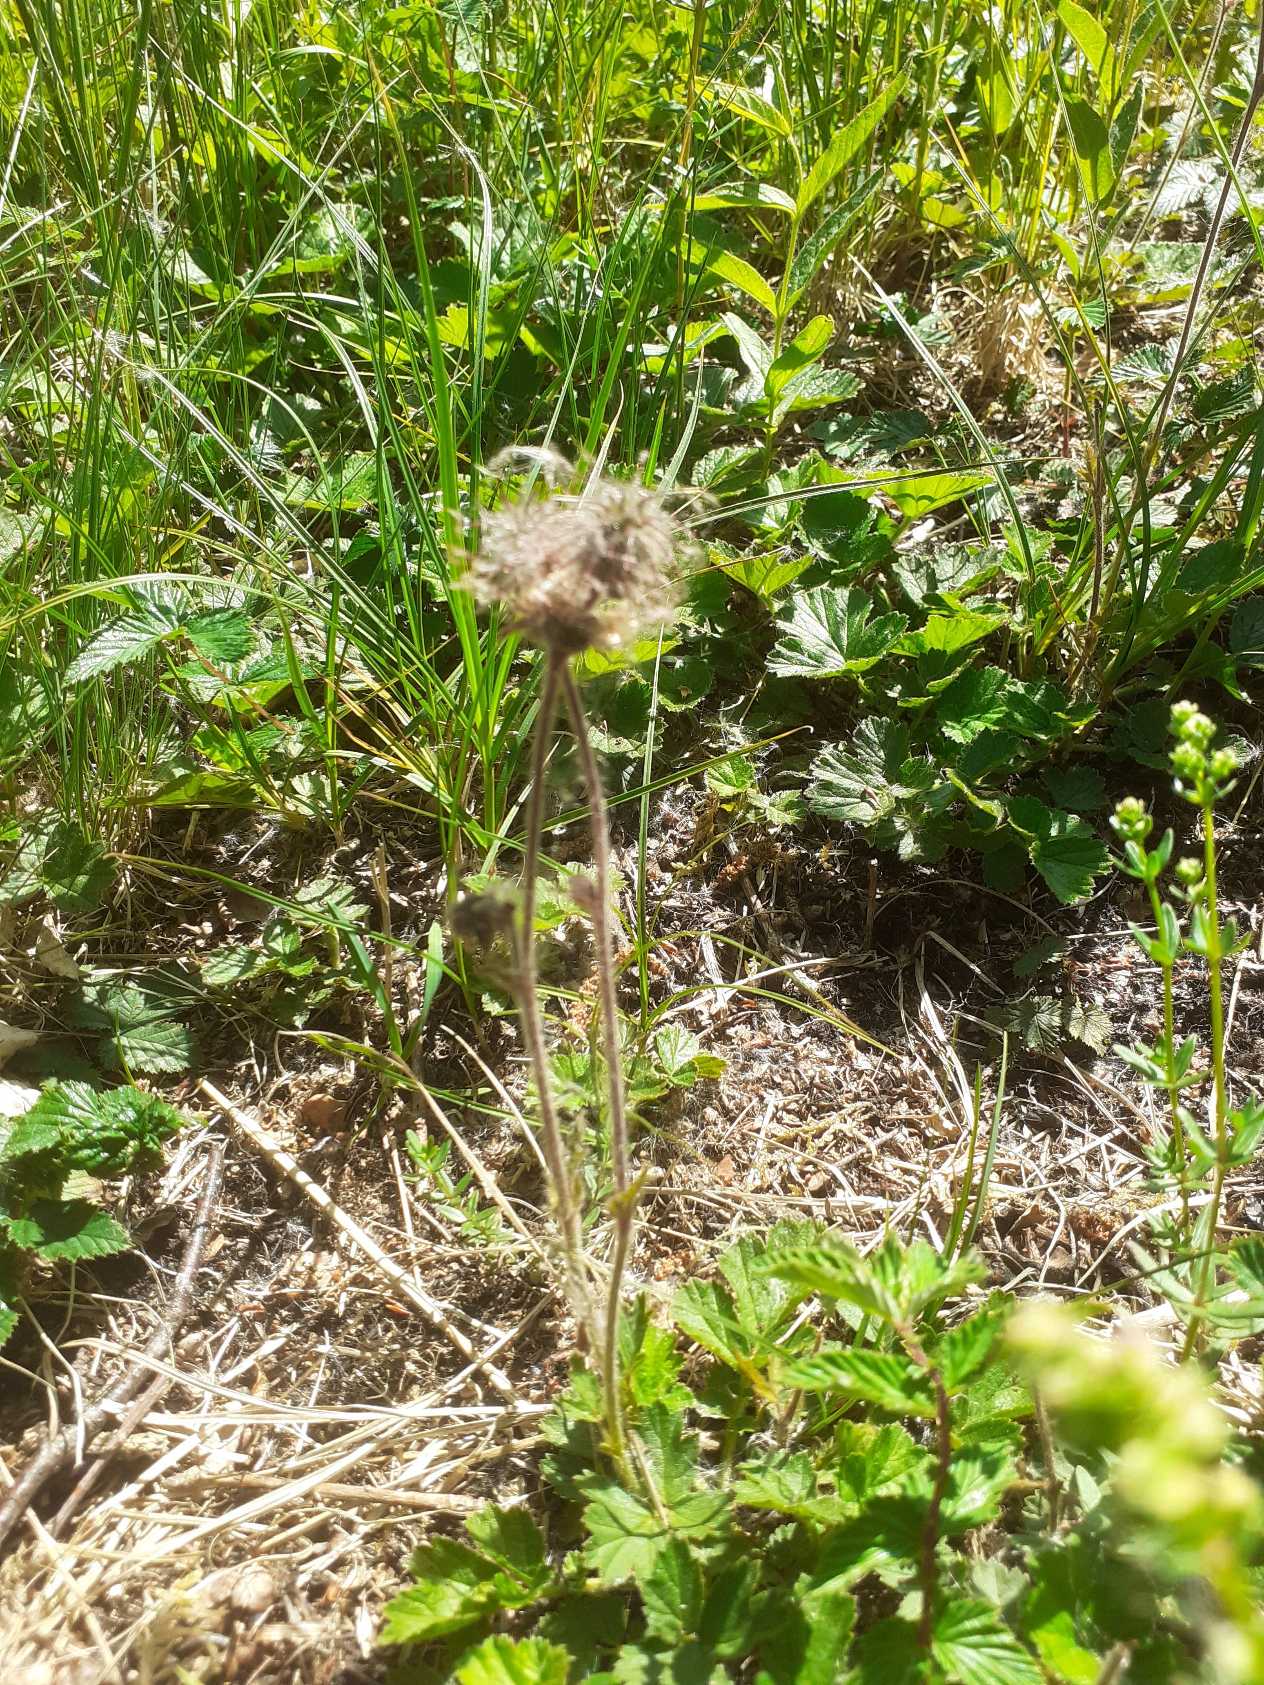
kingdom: Plantae
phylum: Tracheophyta
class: Magnoliopsida
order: Rosales
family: Rosaceae
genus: Geum
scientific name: Geum rivale
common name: Eng-nellikerod
